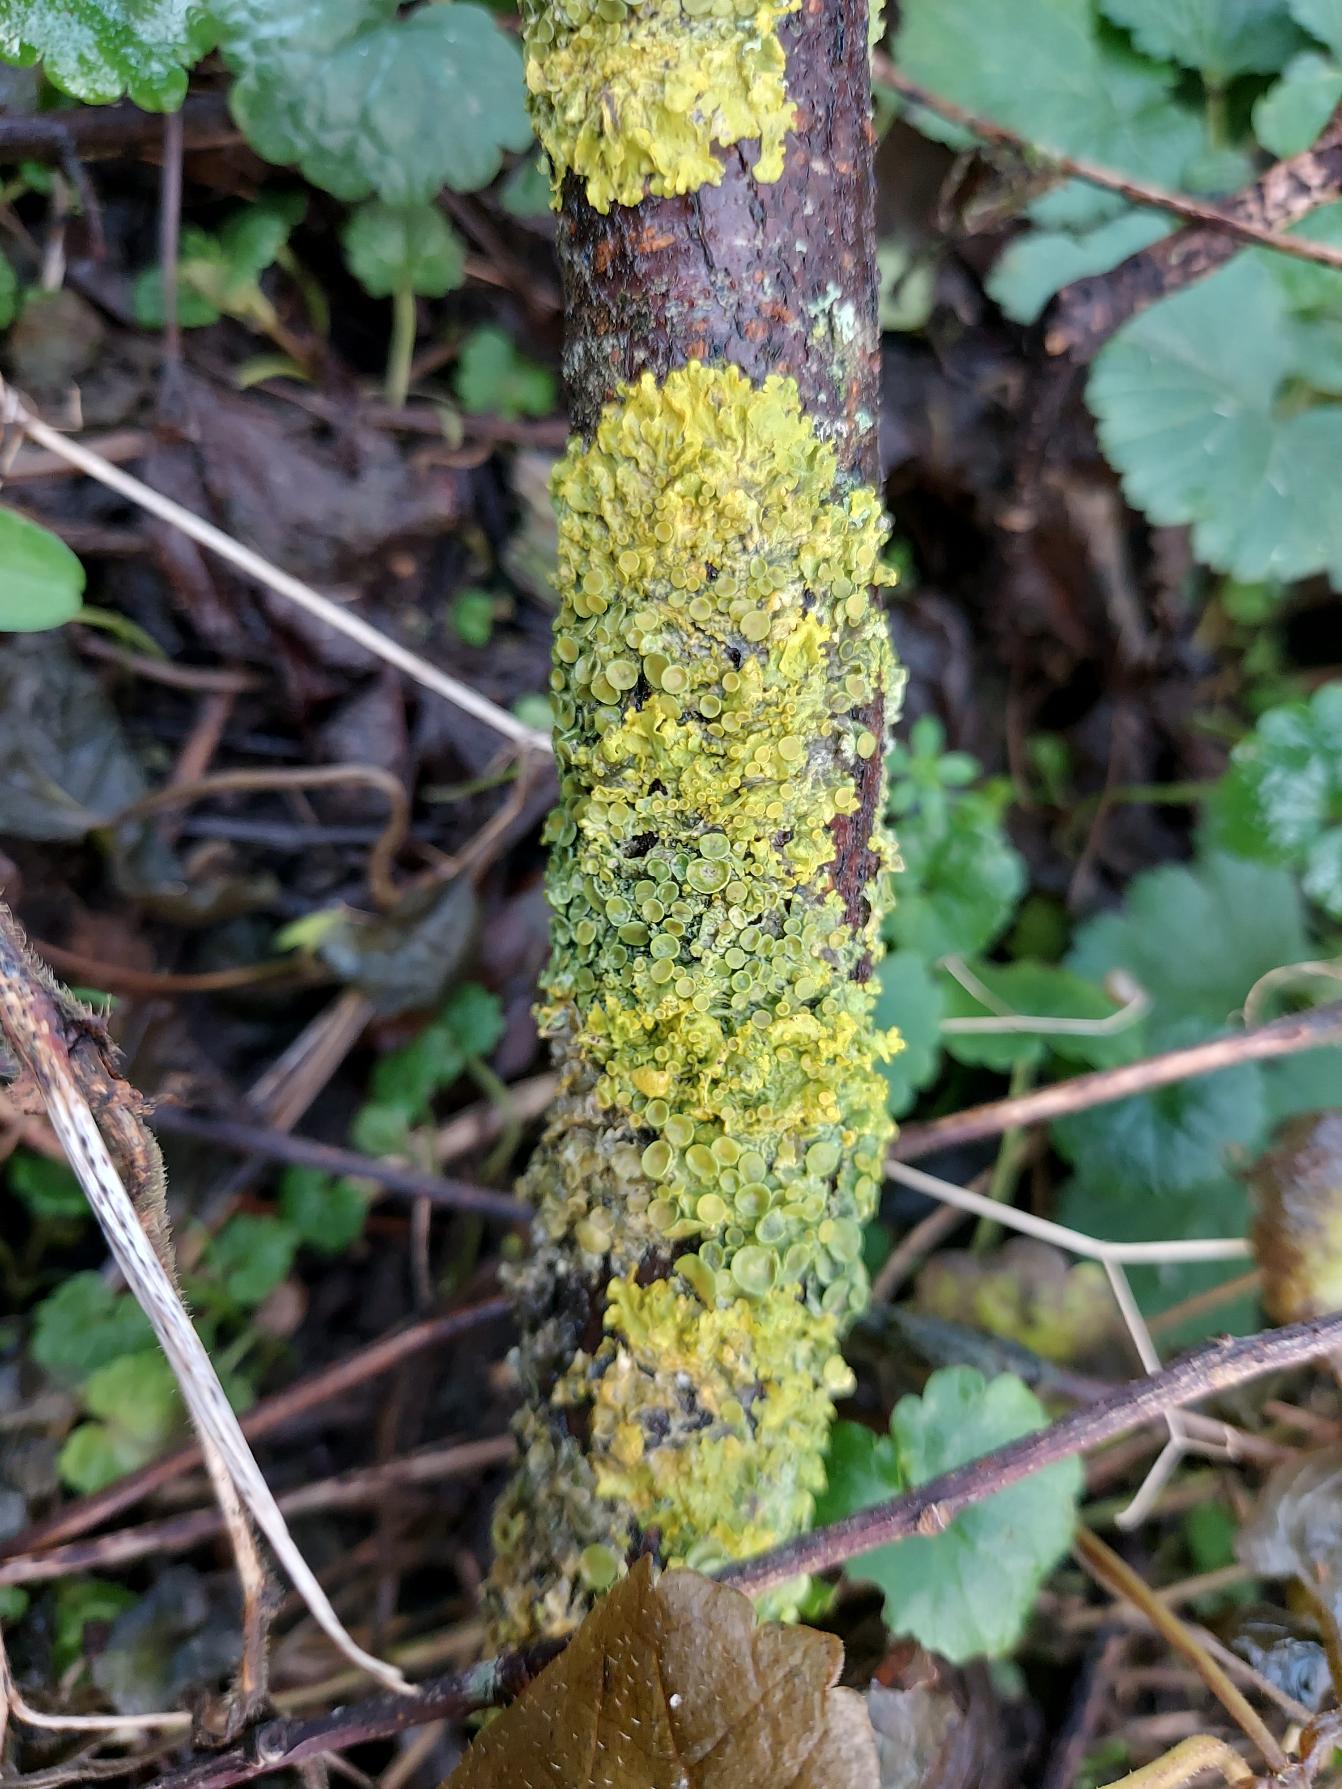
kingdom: Fungi
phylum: Ascomycota
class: Lecanoromycetes
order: Teloschistales
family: Teloschistaceae
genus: Xanthoria
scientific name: Xanthoria parietina
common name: Almindelig væggelav
